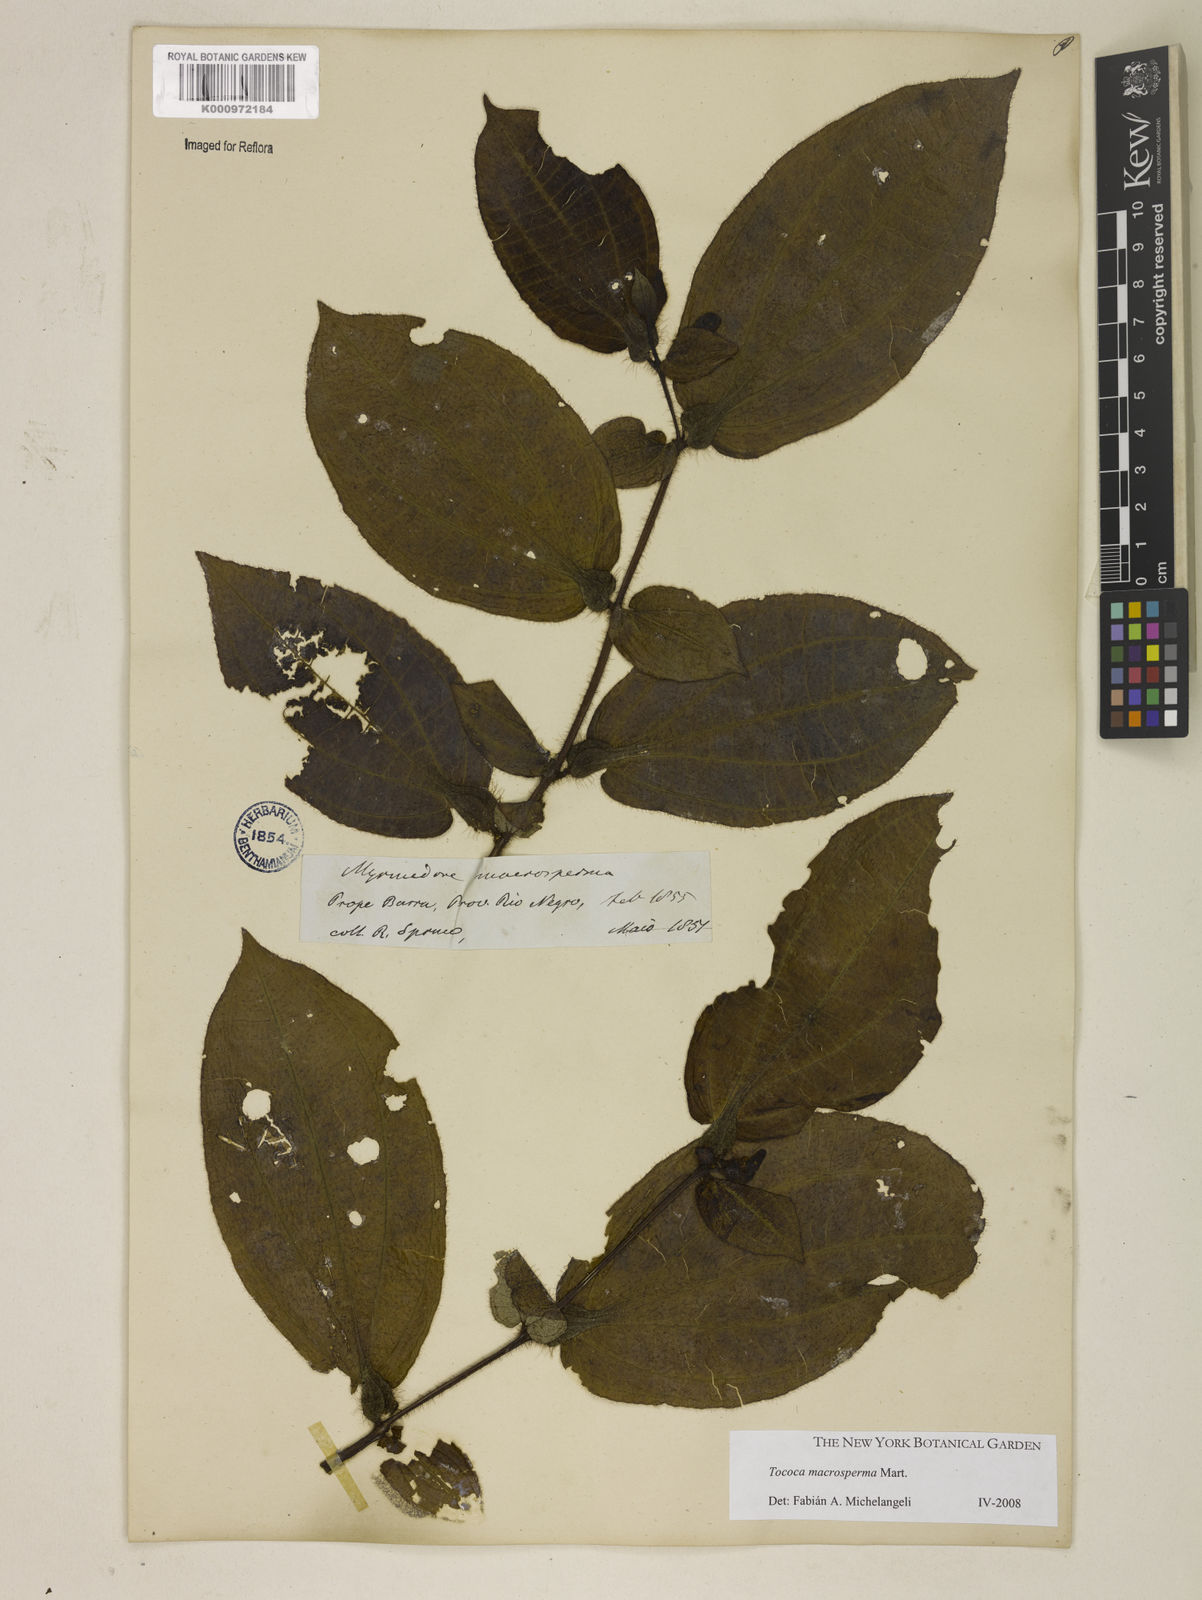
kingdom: Plantae
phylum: Tracheophyta
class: Magnoliopsida
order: Myrtales
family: Melastomataceae
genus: Miconia
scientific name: Miconia macrosperma
